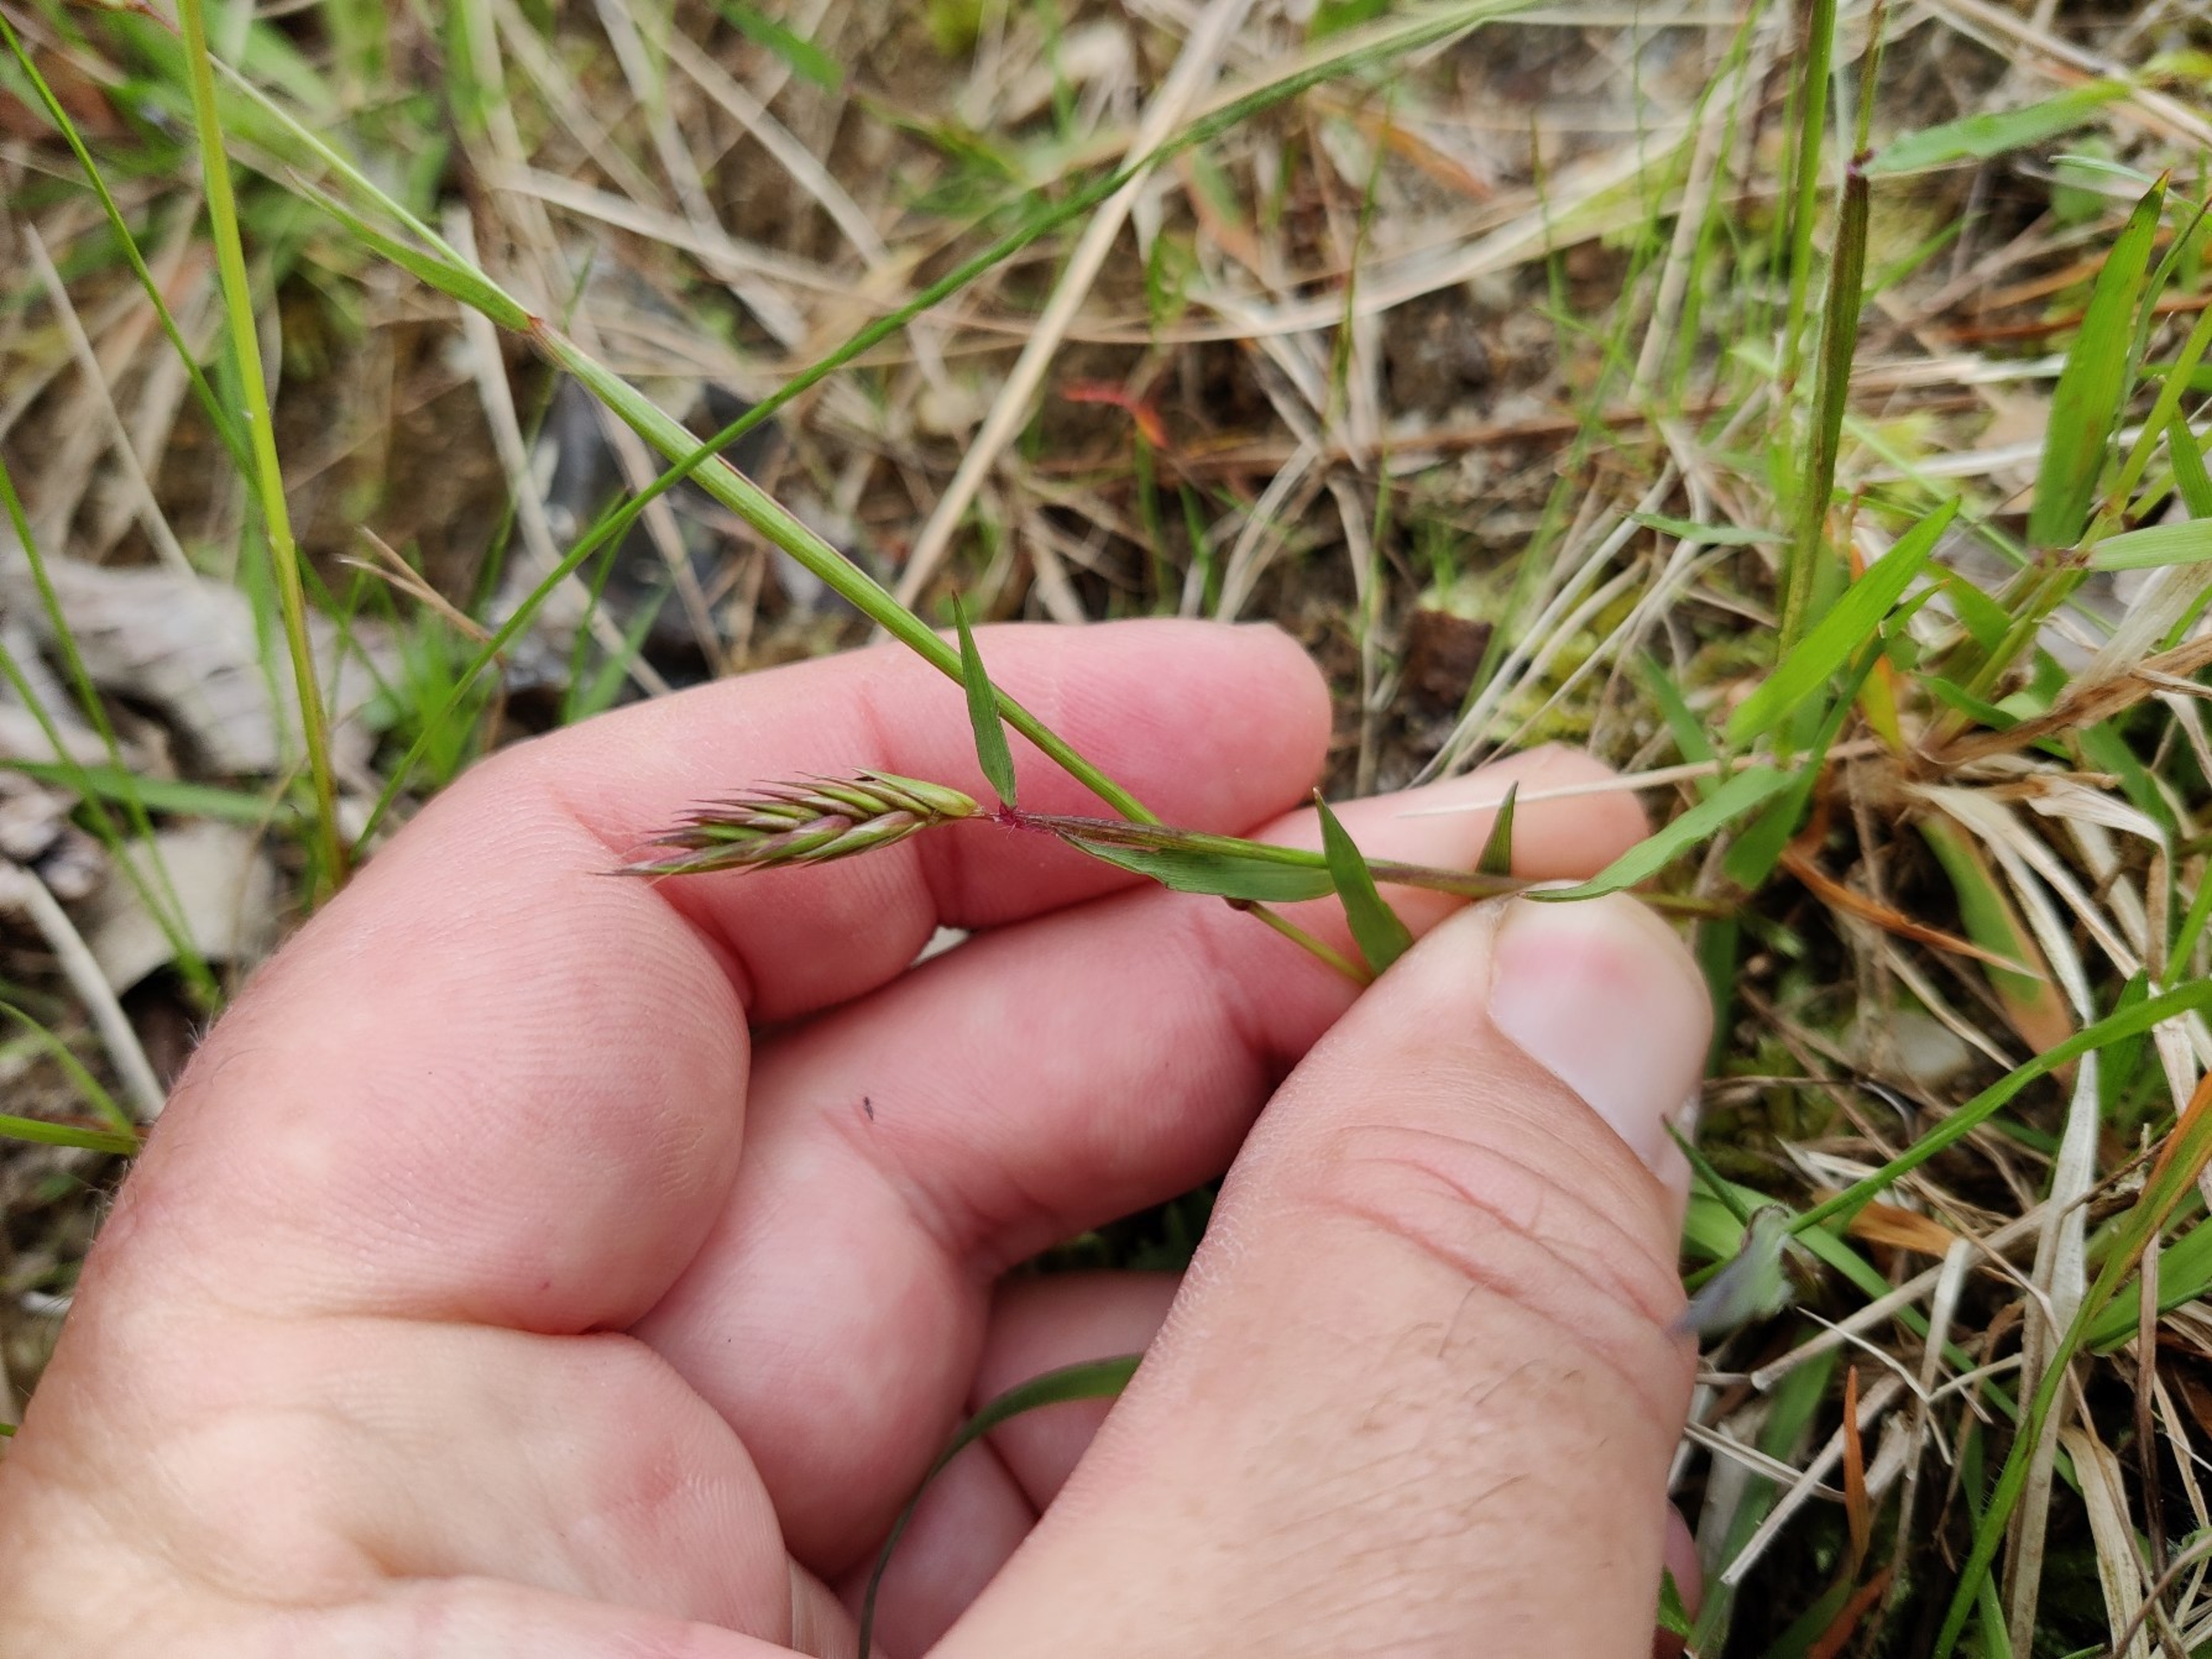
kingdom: Plantae
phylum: Tracheophyta
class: Liliopsida
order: Poales
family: Poaceae
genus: Anthoxanthum
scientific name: Anthoxanthum odoratum
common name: Vellugtende gulaks
